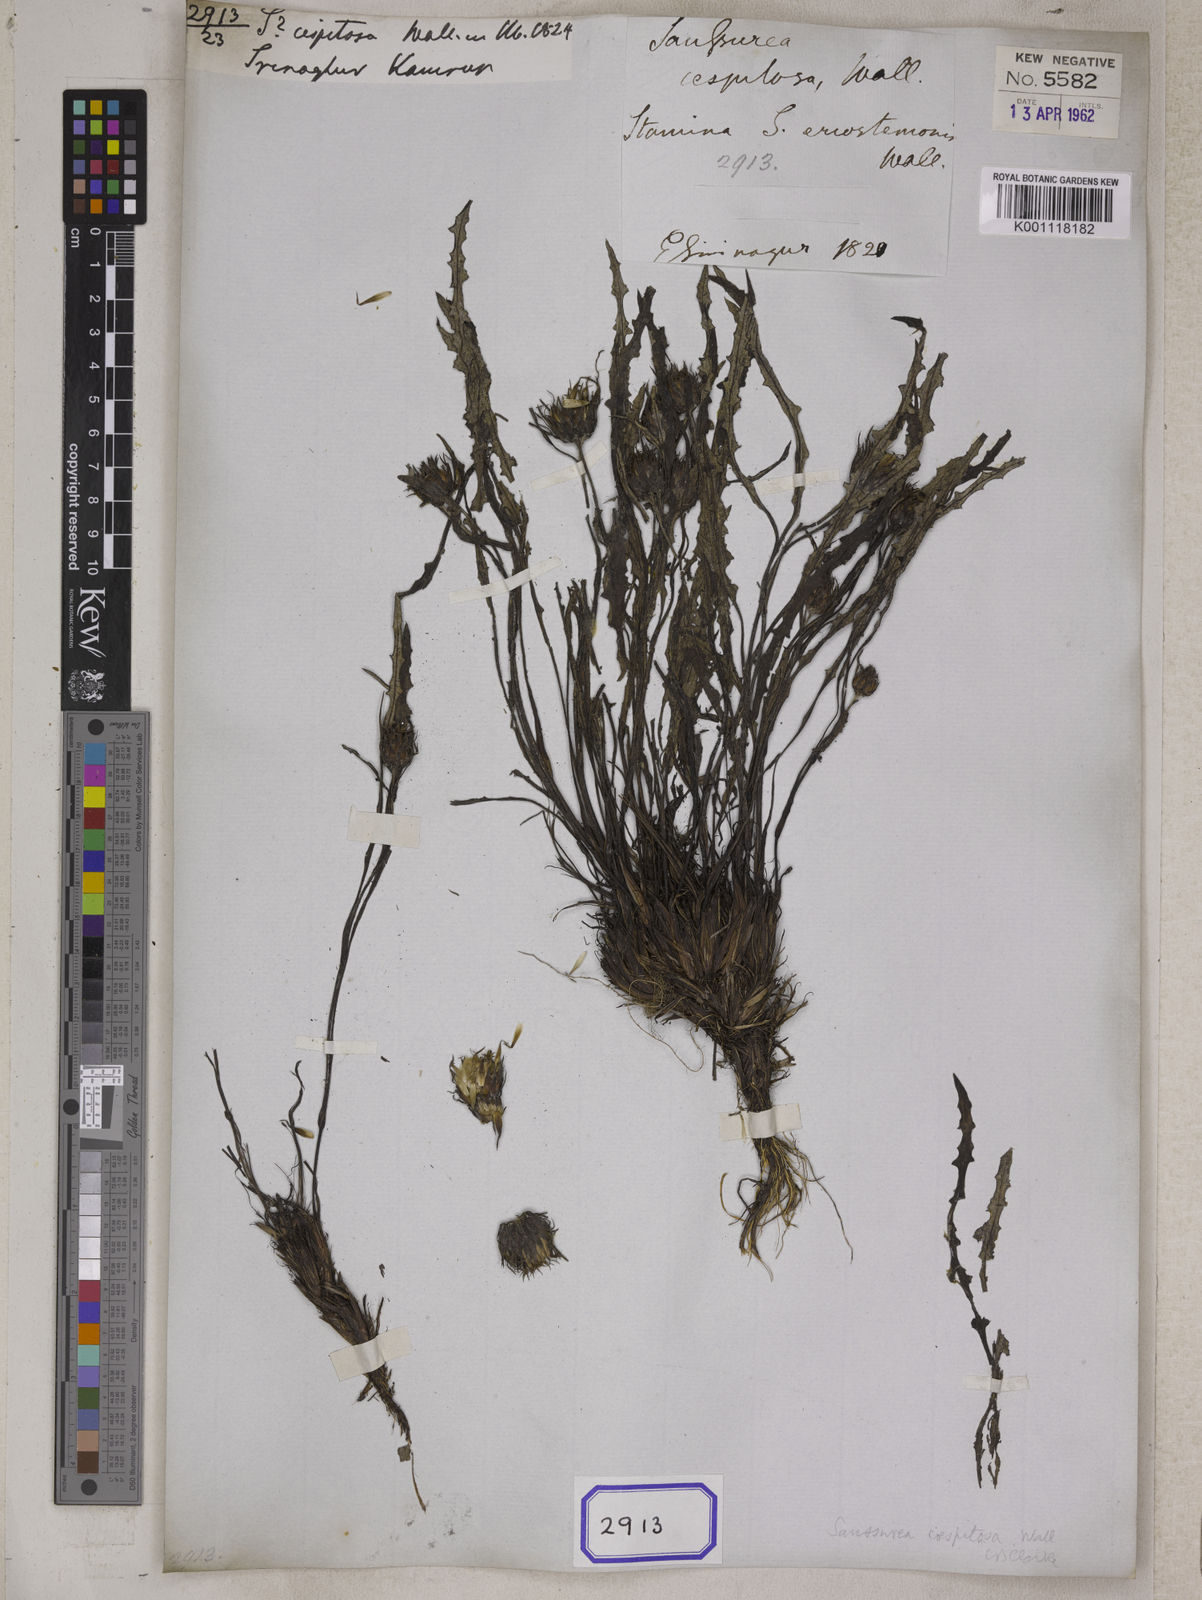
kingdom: Plantae
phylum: Tracheophyta
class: Magnoliopsida
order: Asterales
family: Asteraceae
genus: Saussurea
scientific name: Saussurea caespitosa
